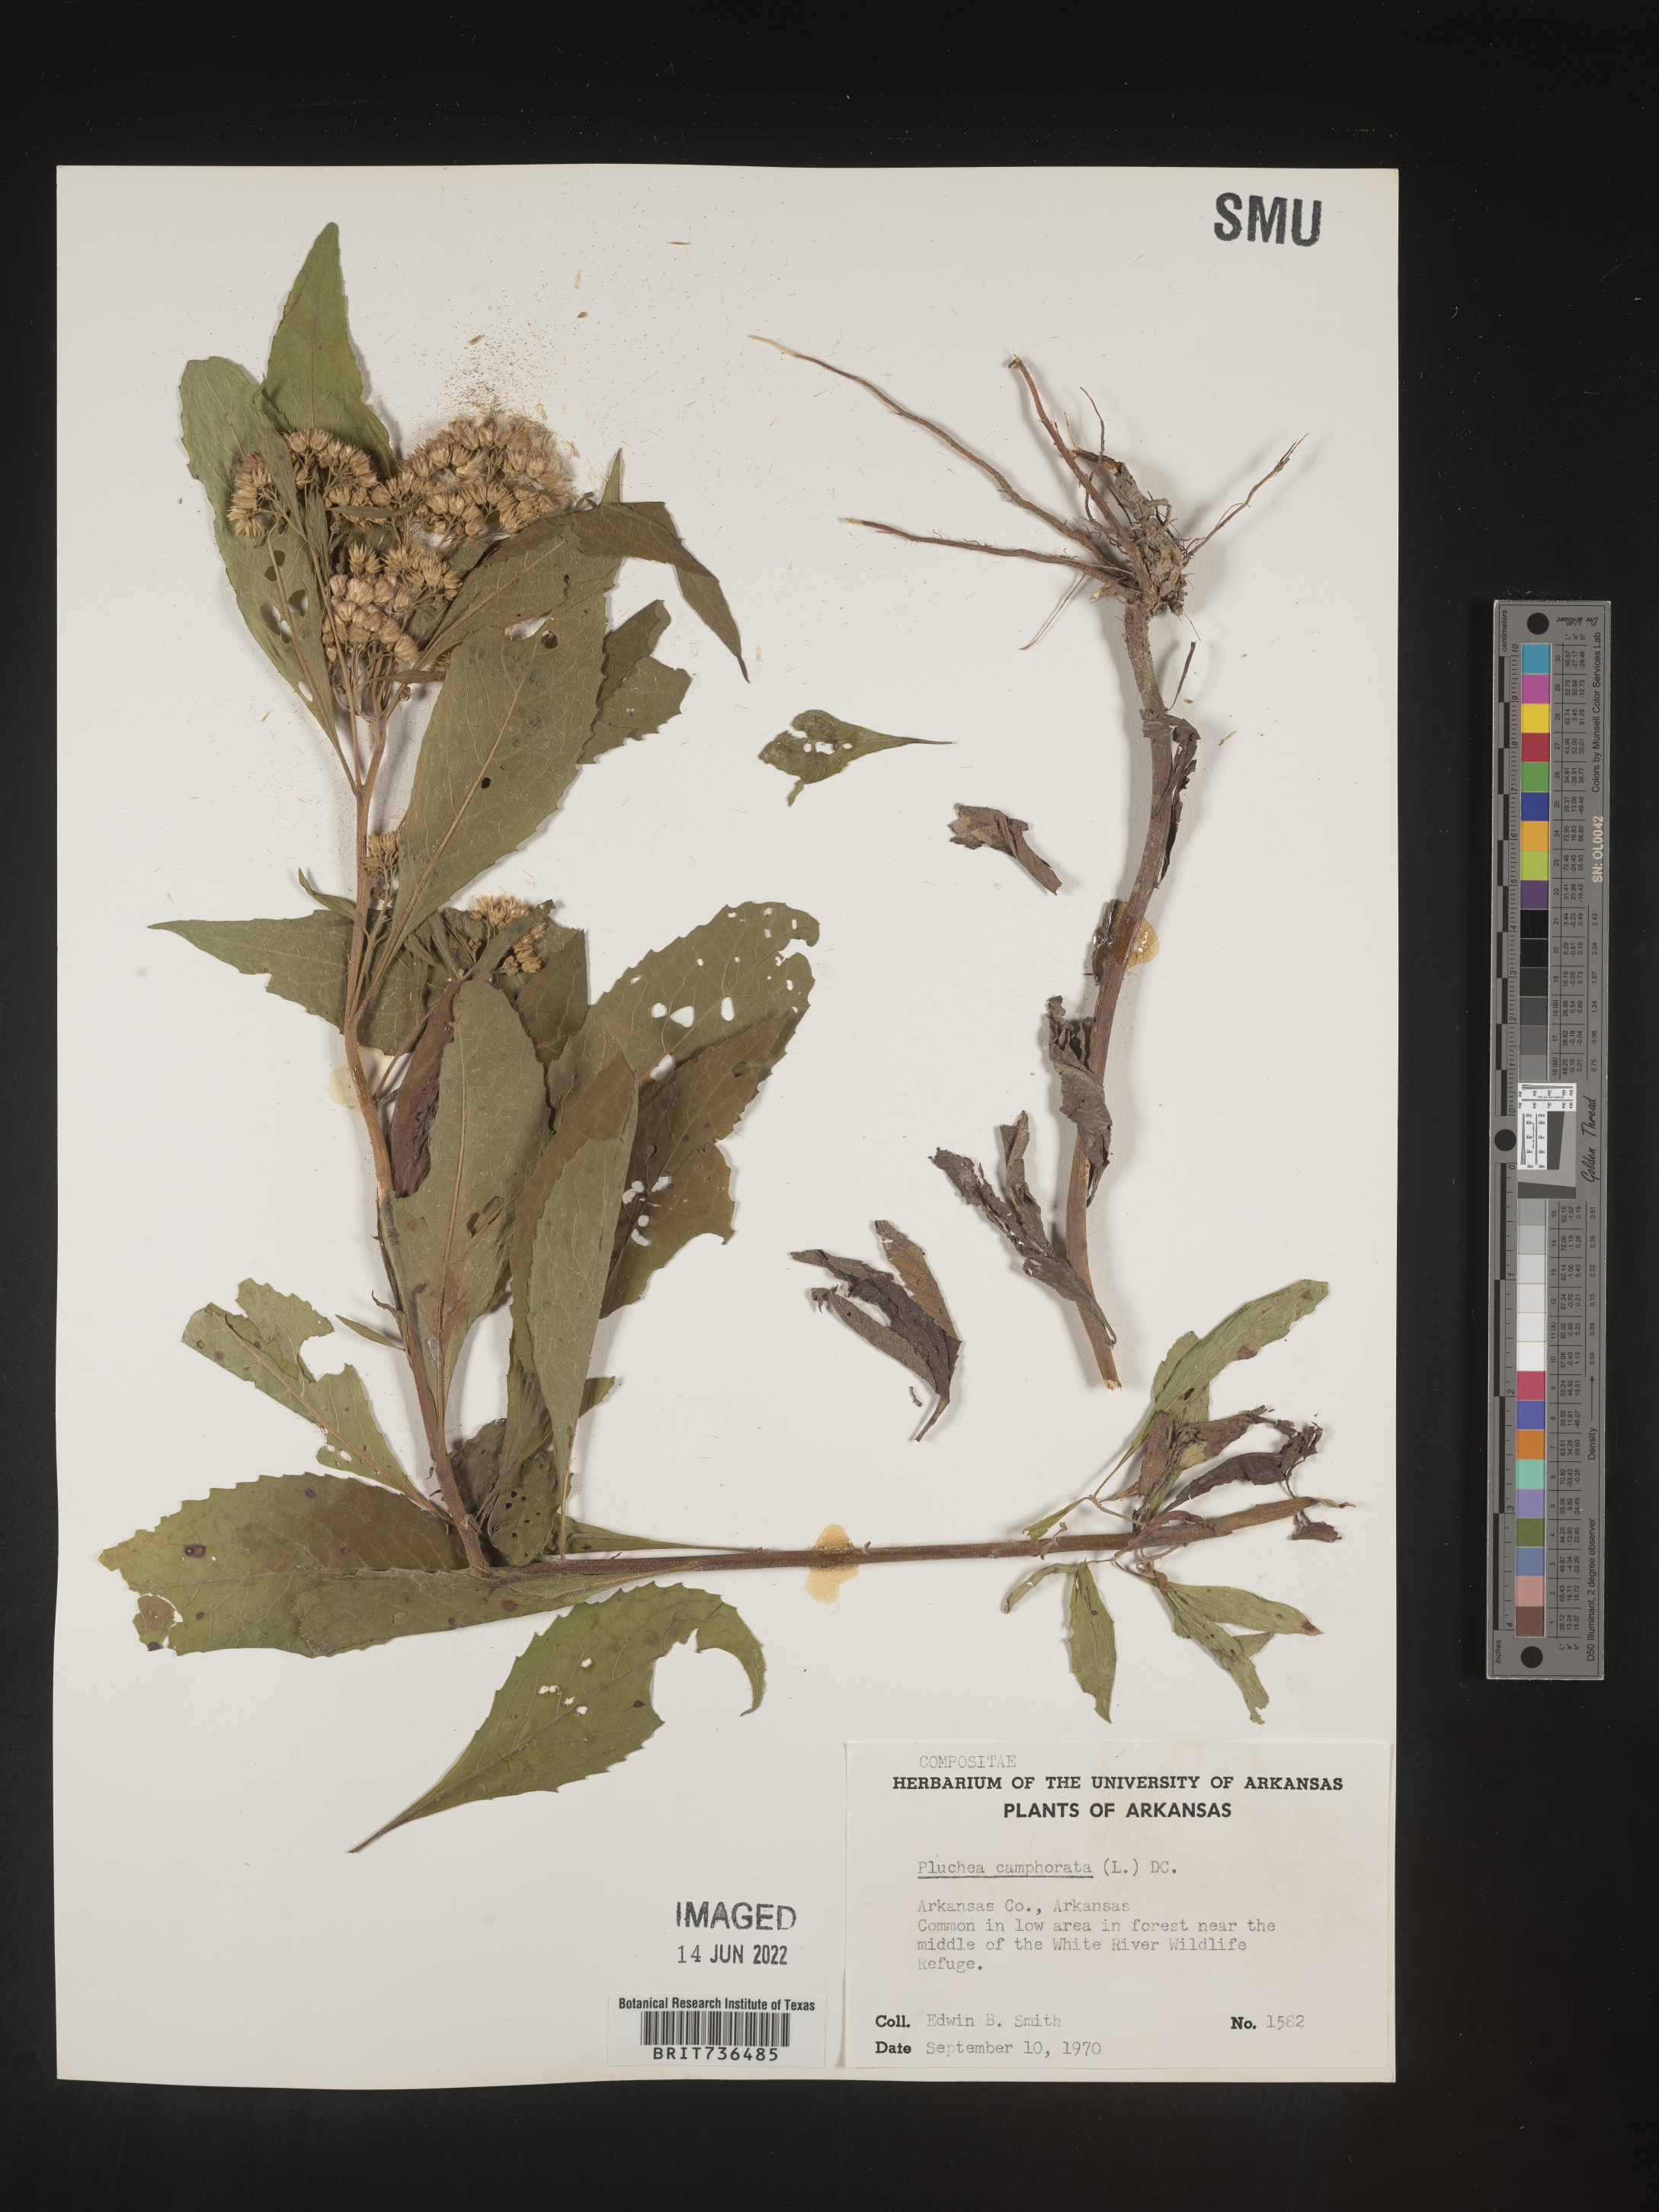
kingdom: Plantae
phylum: Tracheophyta
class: Magnoliopsida
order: Asterales
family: Asteraceae
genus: Pluchea
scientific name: Pluchea camphorata
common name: Camphor pluchea
